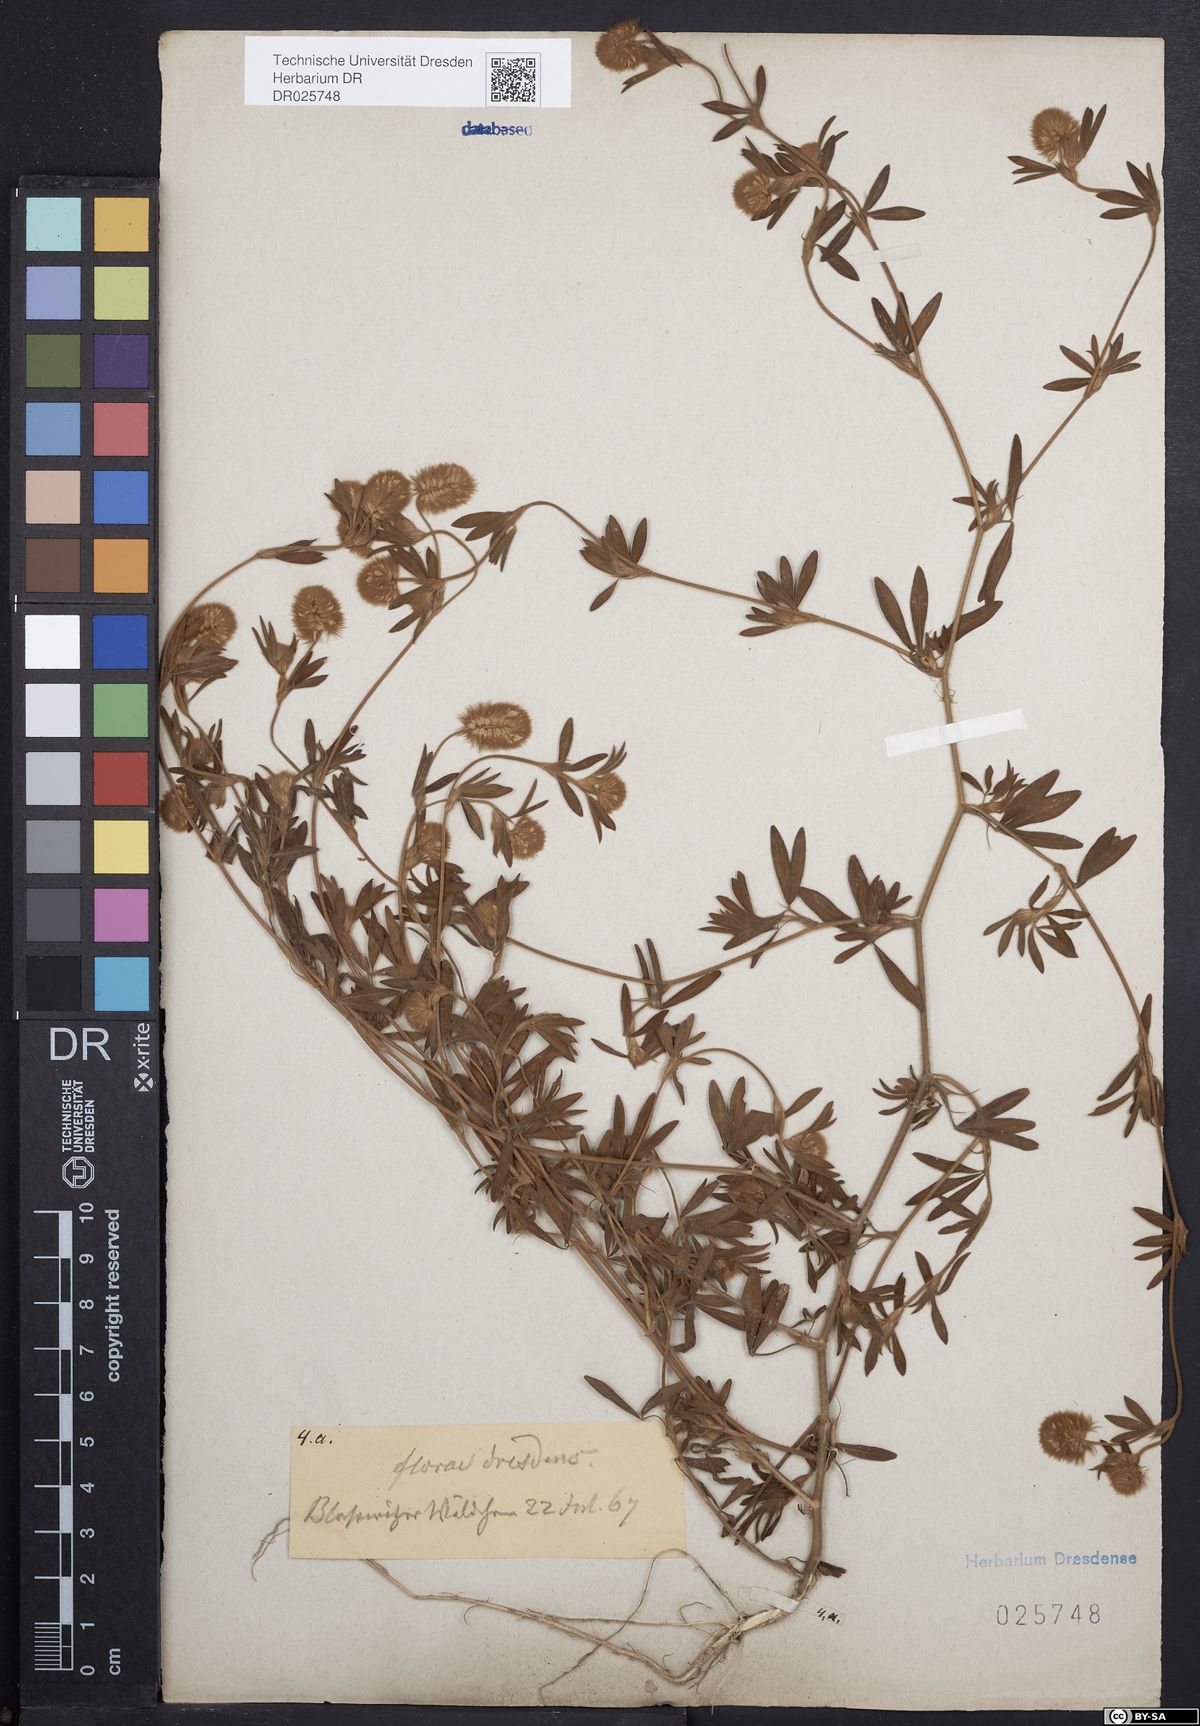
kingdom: Plantae
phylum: Tracheophyta
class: Magnoliopsida
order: Fabales
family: Fabaceae
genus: Trifolium
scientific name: Trifolium arvense
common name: Hare's-foot clover
